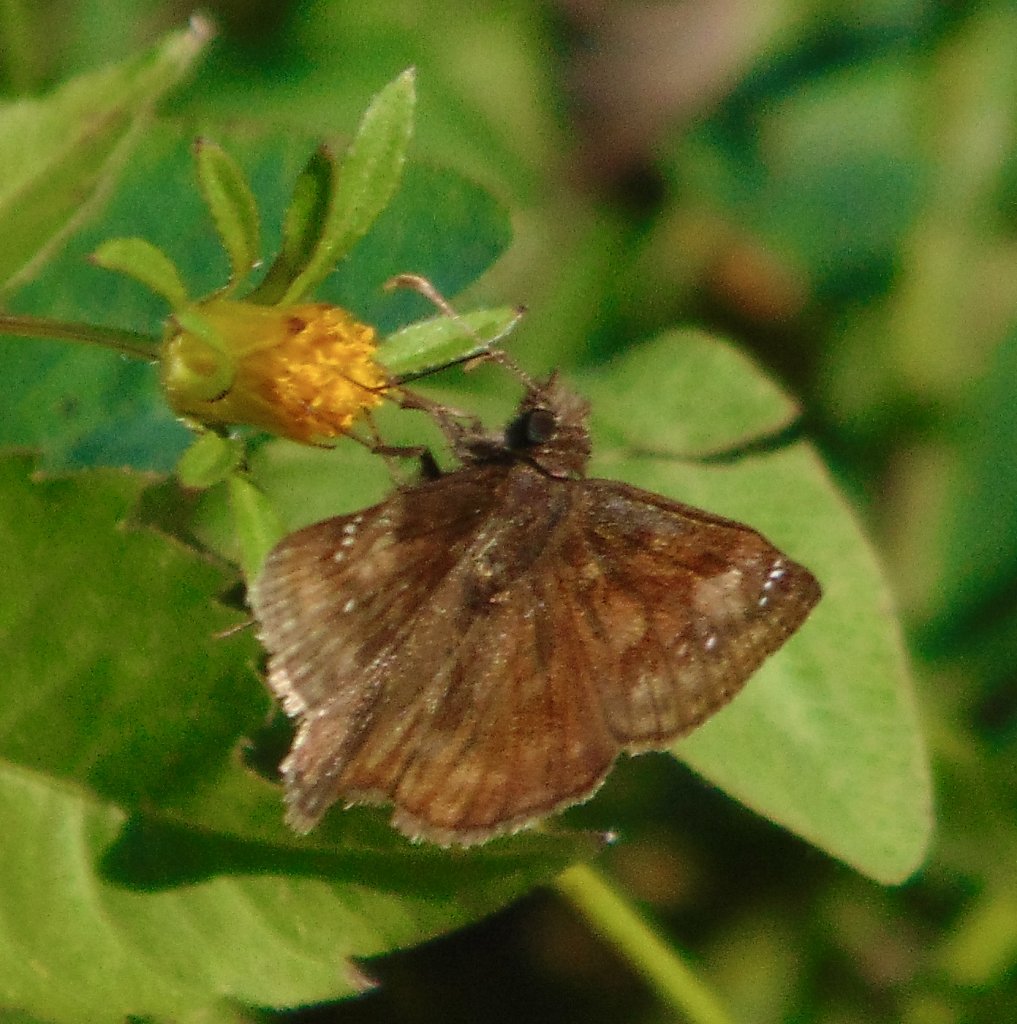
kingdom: Animalia
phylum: Arthropoda
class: Insecta
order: Lepidoptera
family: Hesperiidae
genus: Gesta
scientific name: Gesta
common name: Wild Indigo Duskywing
